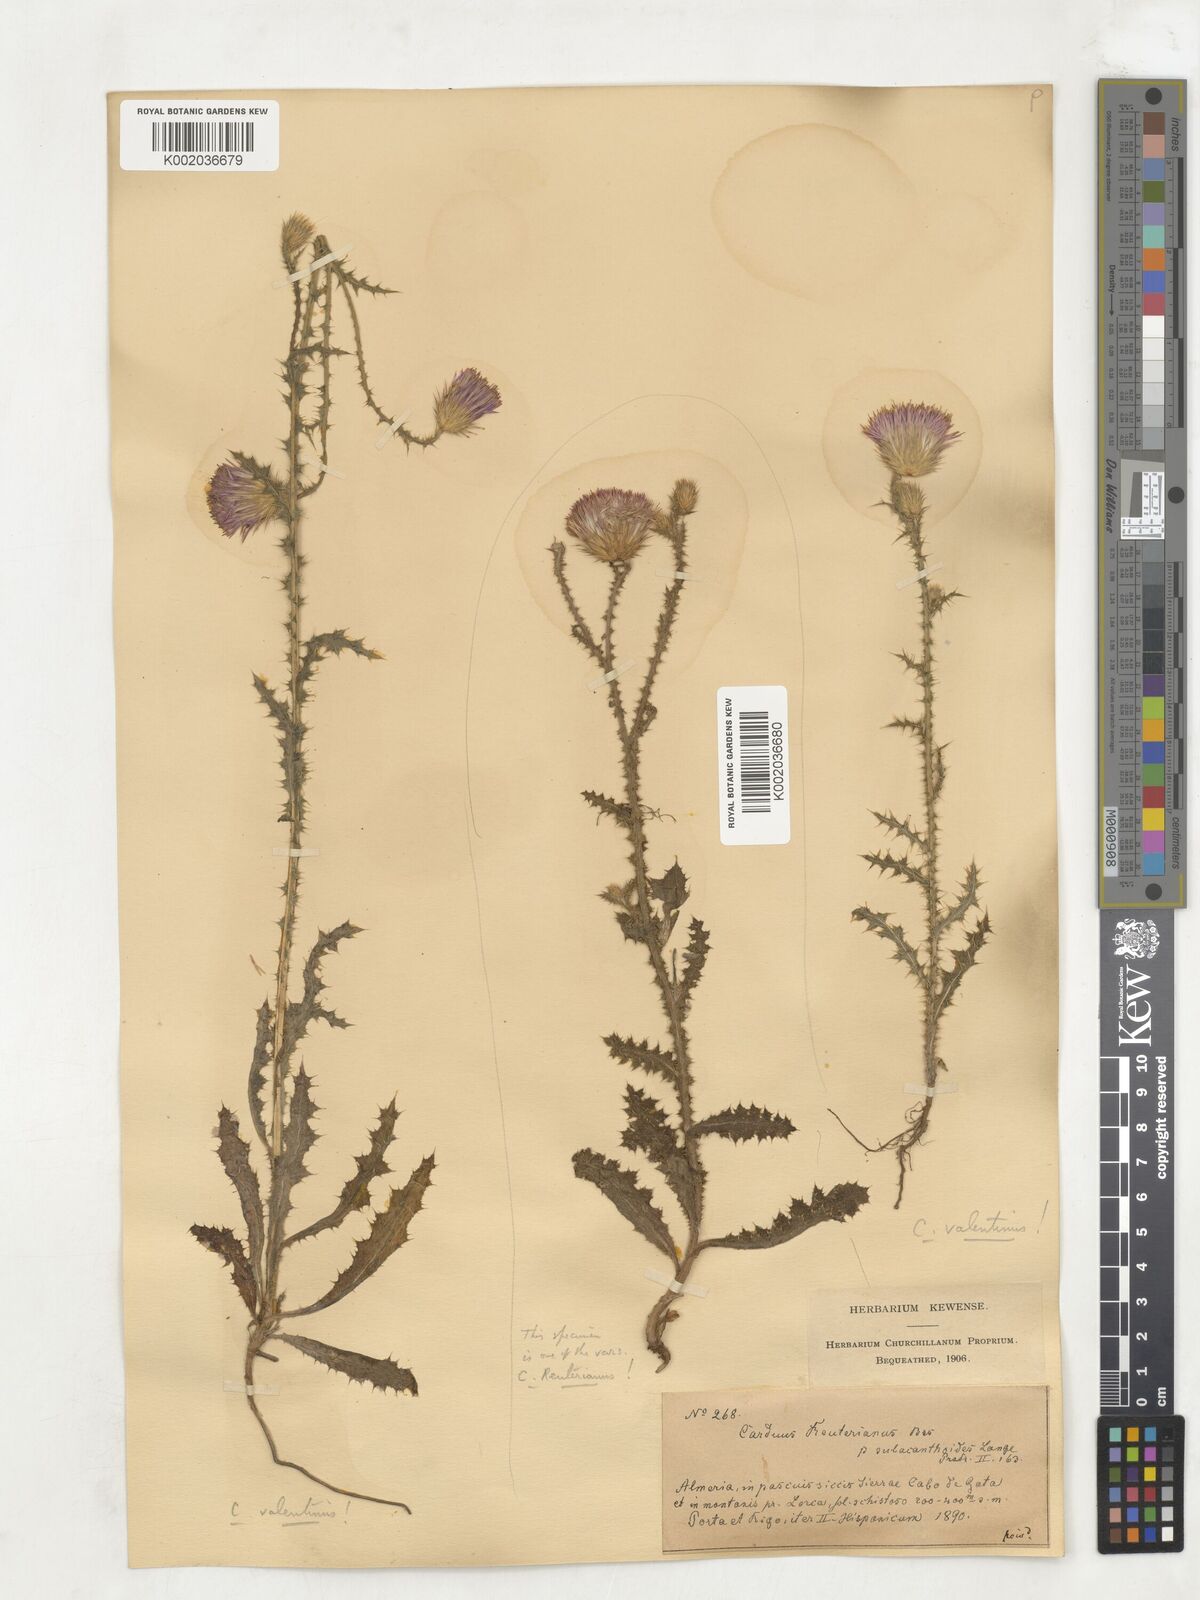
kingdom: Plantae
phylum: Tracheophyta
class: Magnoliopsida
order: Asterales
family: Asteraceae
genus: Carduus
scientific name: Carduus meonanthus
